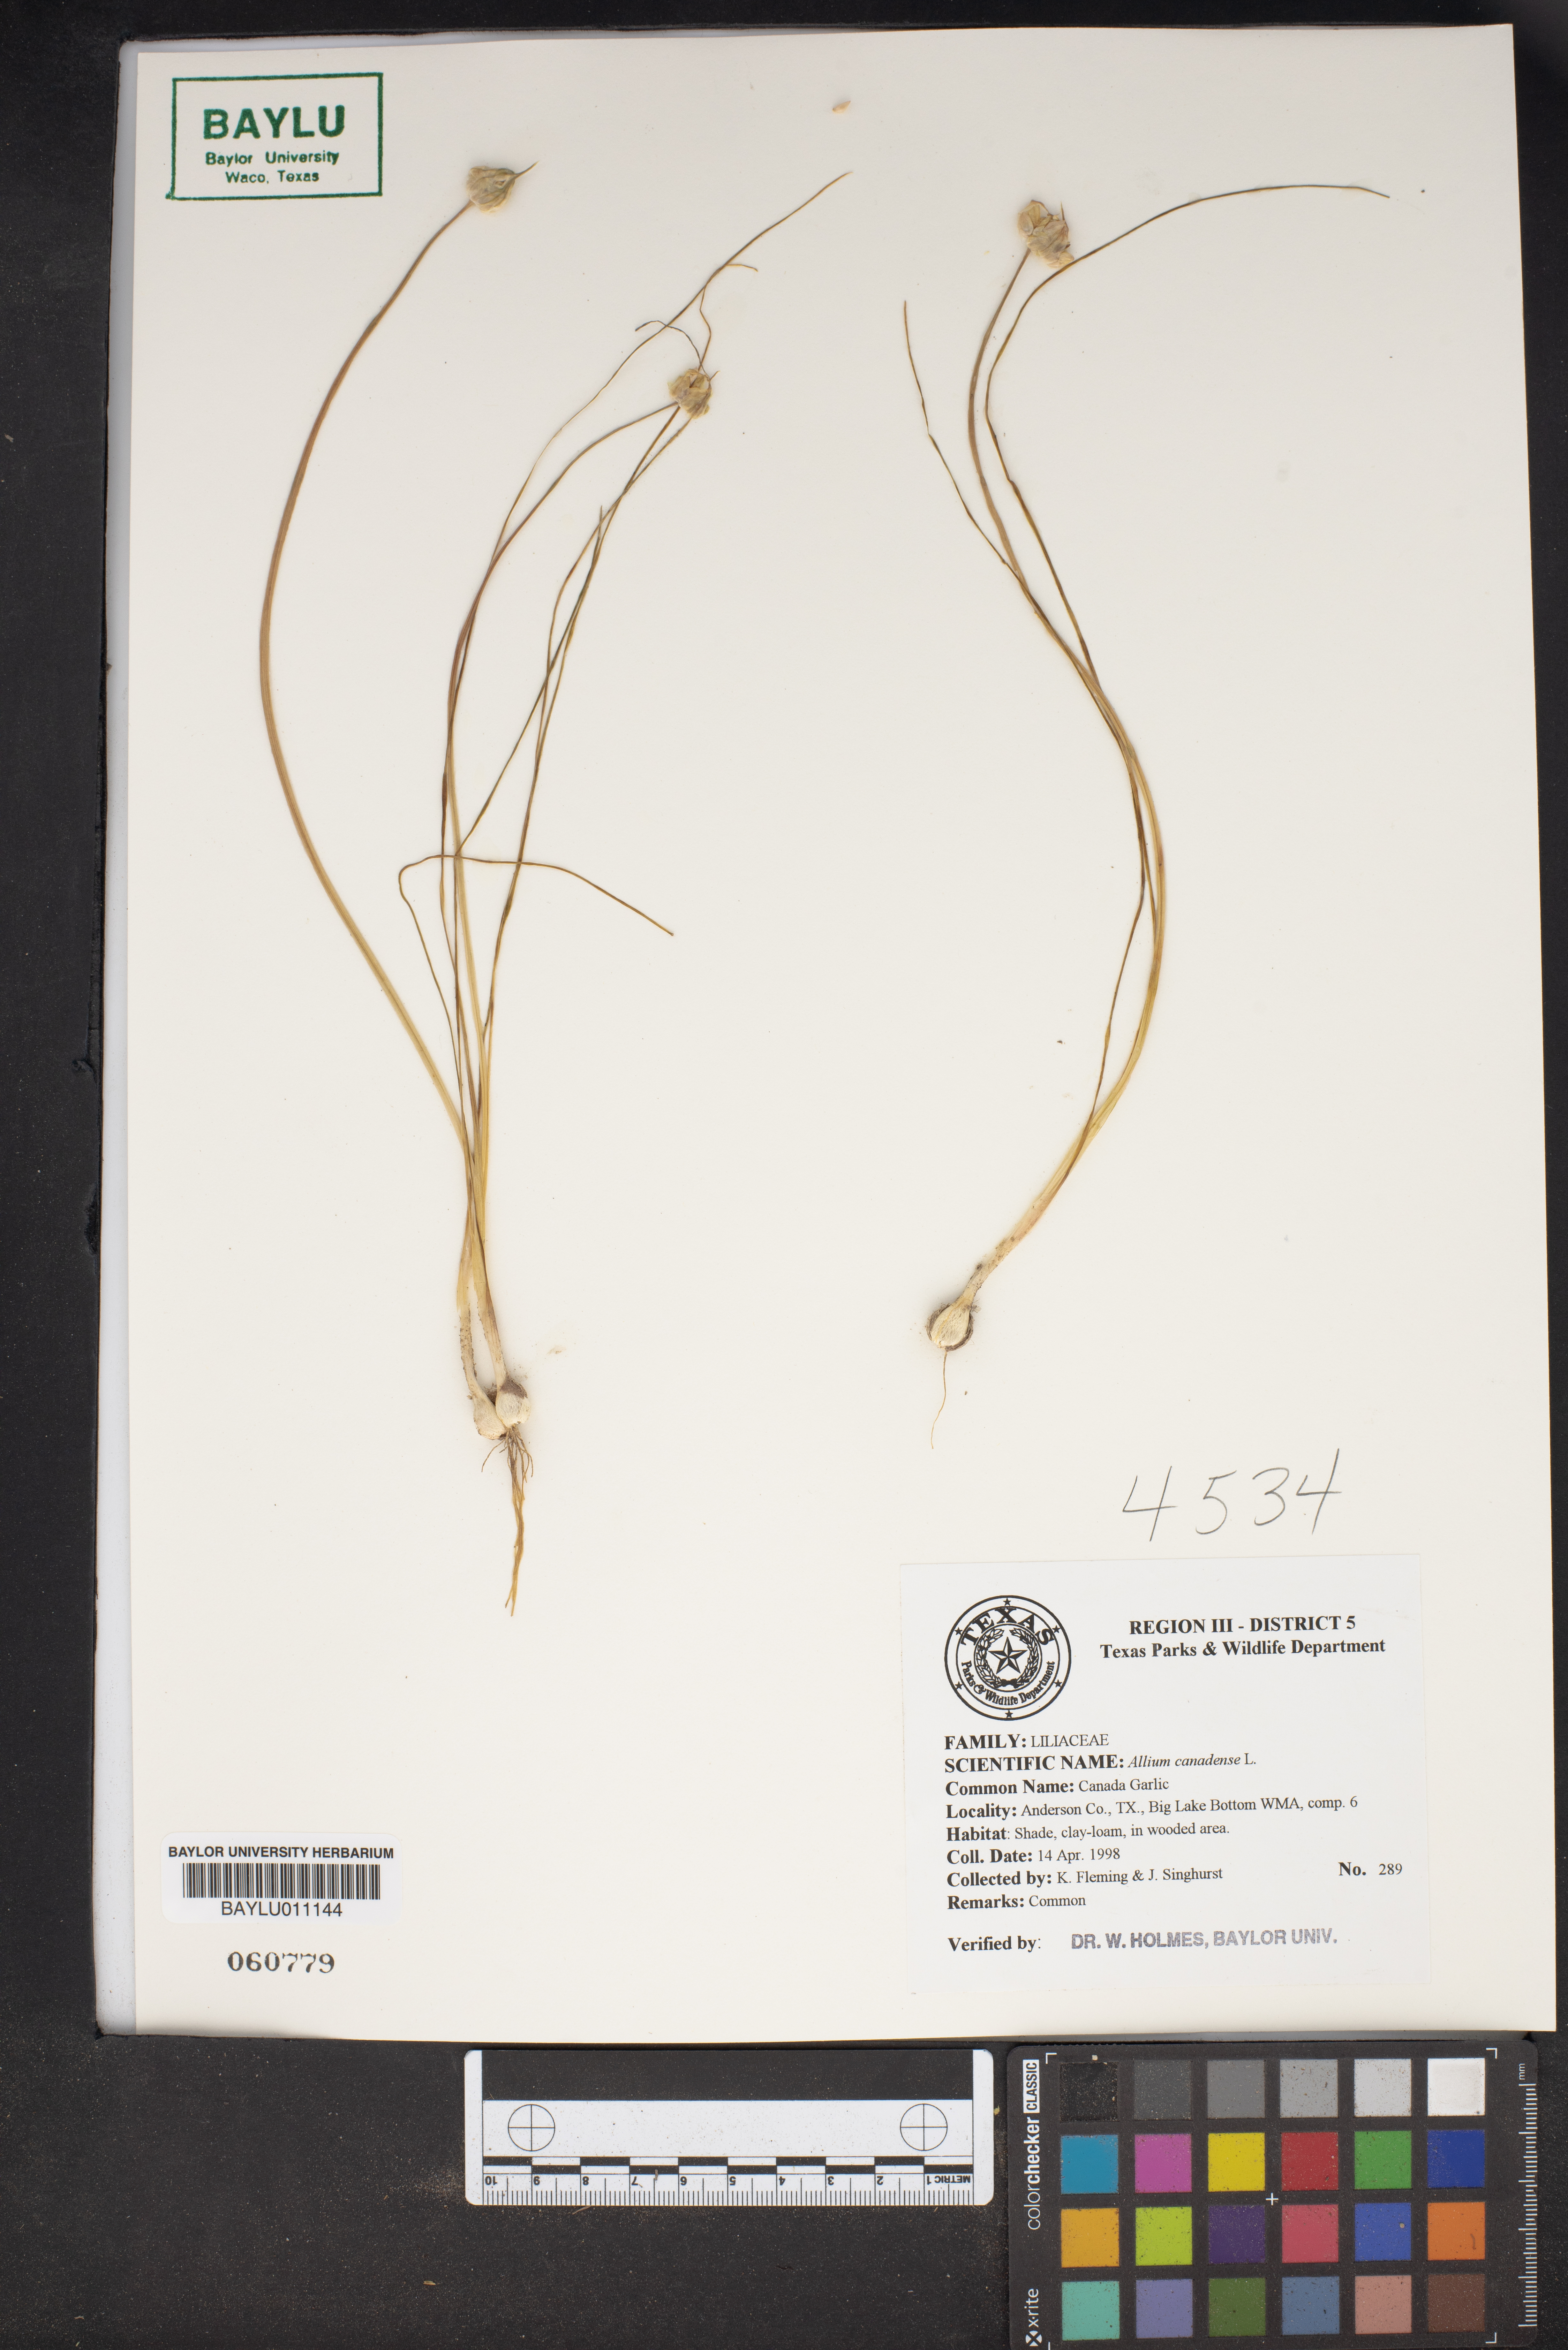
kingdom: Plantae
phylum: Tracheophyta
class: Liliopsida
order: Asparagales
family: Amaryllidaceae
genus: Allium
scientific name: Allium canadense
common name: Meadow garlic
